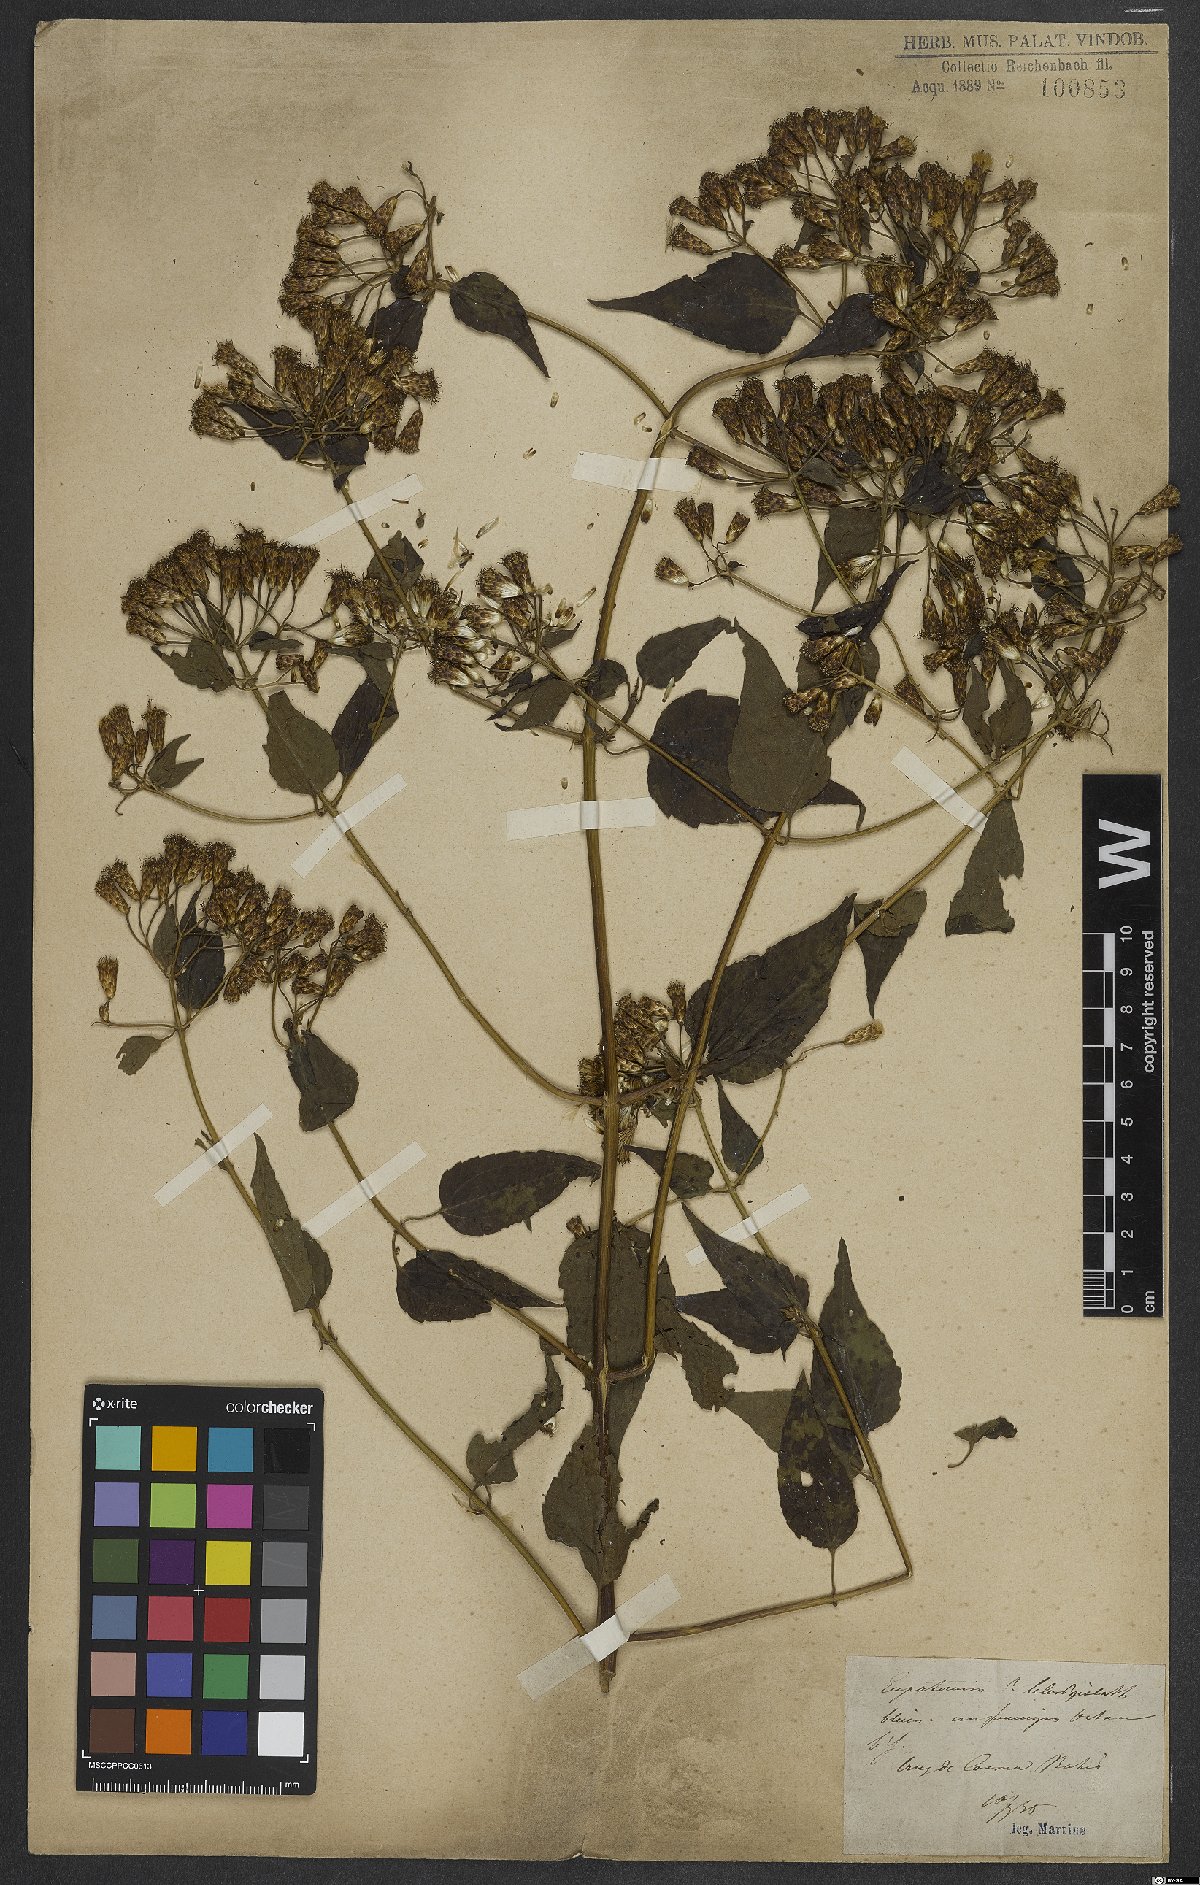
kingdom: Plantae
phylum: Tracheophyta
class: Magnoliopsida
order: Asterales
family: Asteraceae
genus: Eupatorium
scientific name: Eupatorium
